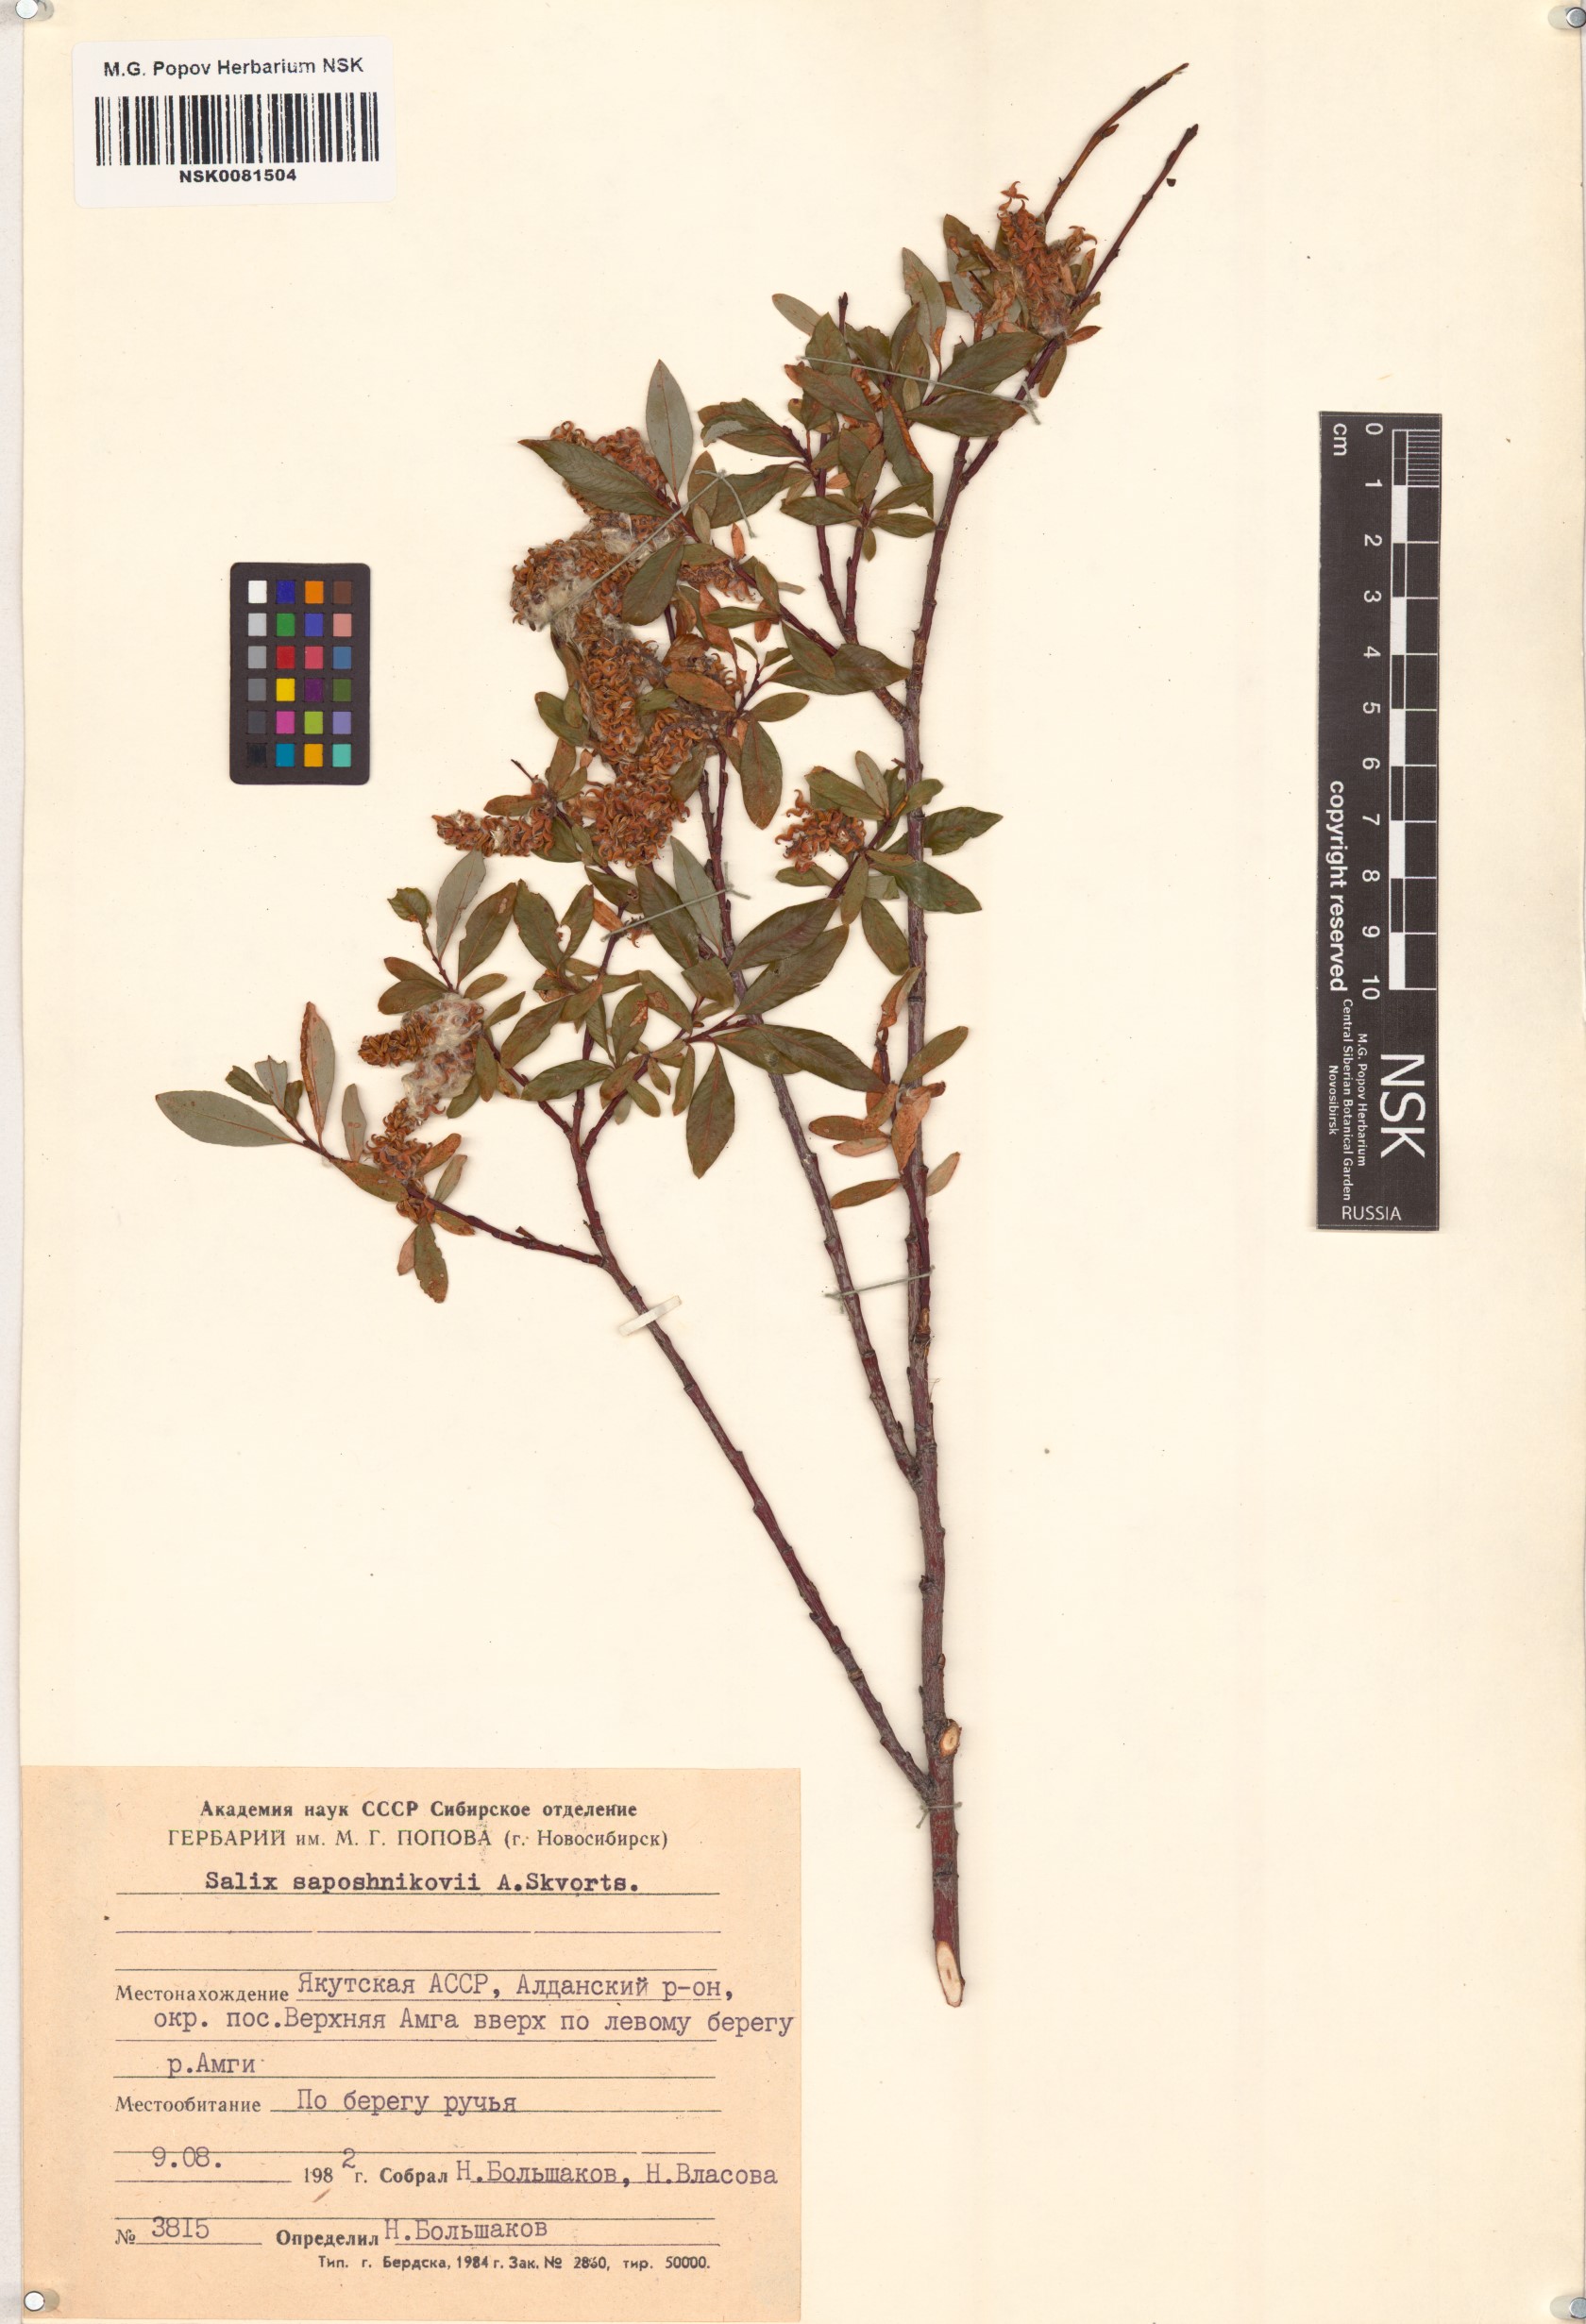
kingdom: Plantae
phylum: Tracheophyta
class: Magnoliopsida
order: Malpighiales
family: Salicaceae
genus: Salix
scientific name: Salix saposhnikovii
